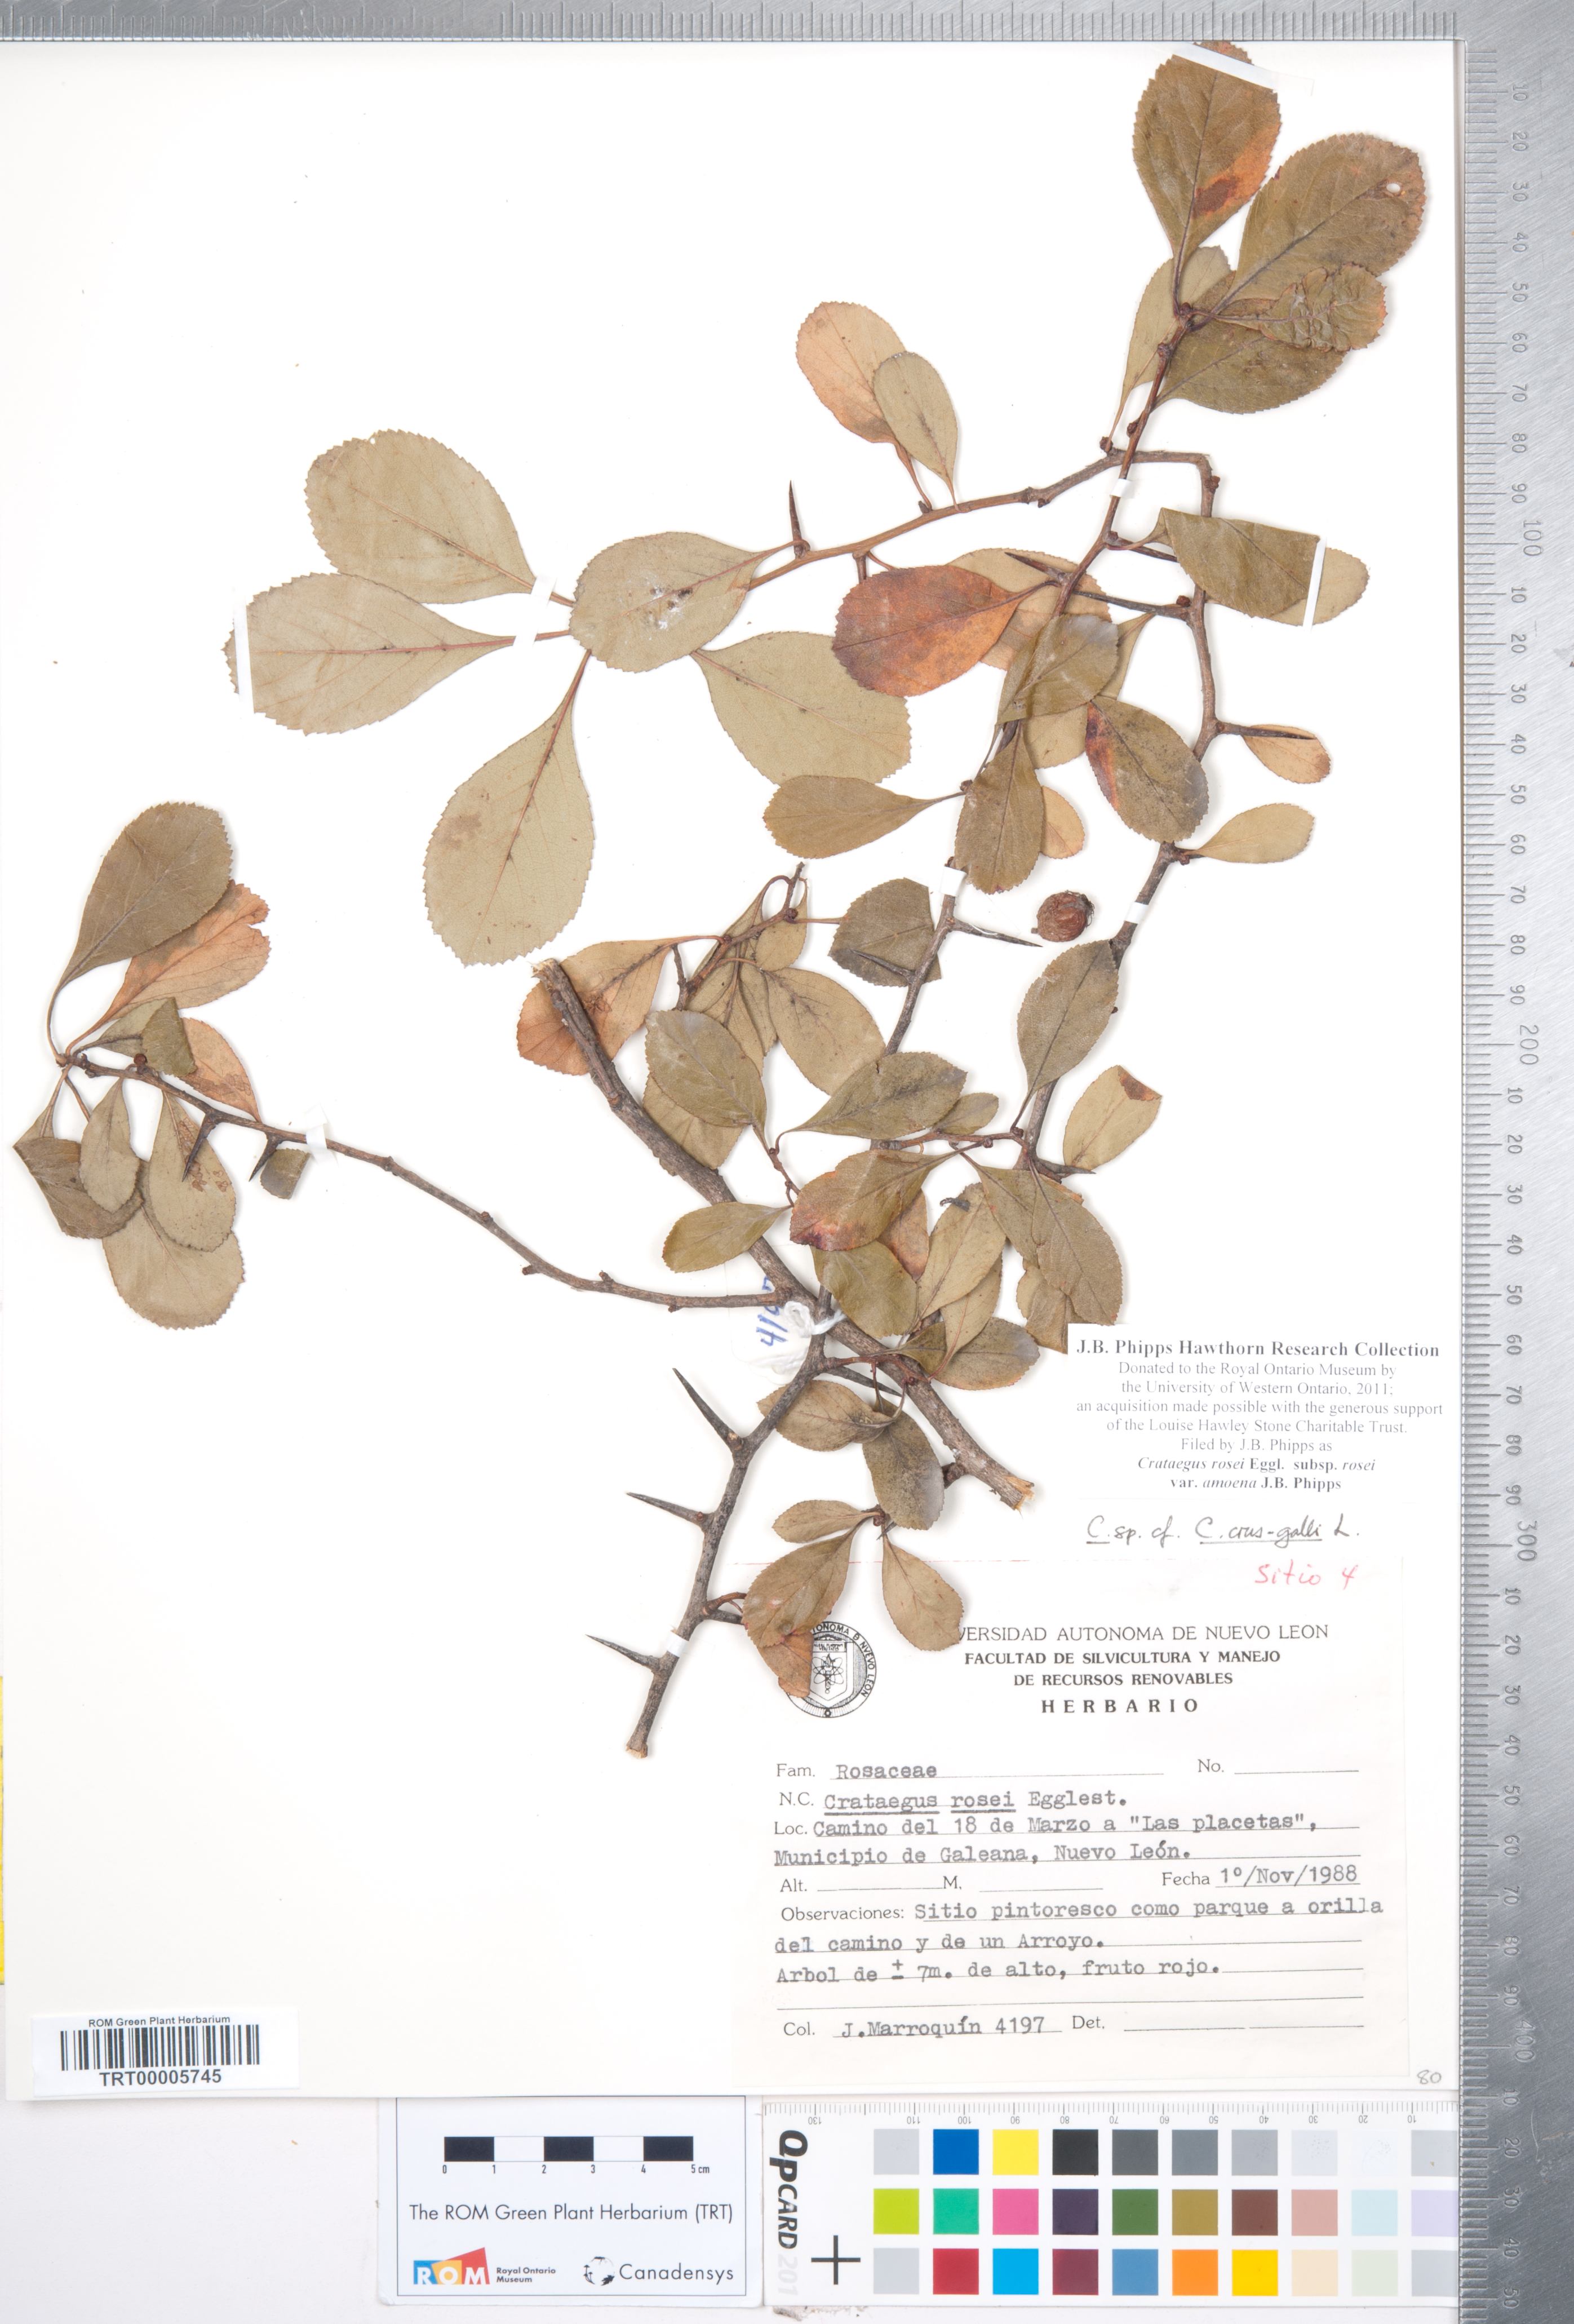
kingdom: Plantae
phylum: Tracheophyta
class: Magnoliopsida
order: Rosales
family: Rosaceae
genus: Crataegus
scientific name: Crataegus rosei
